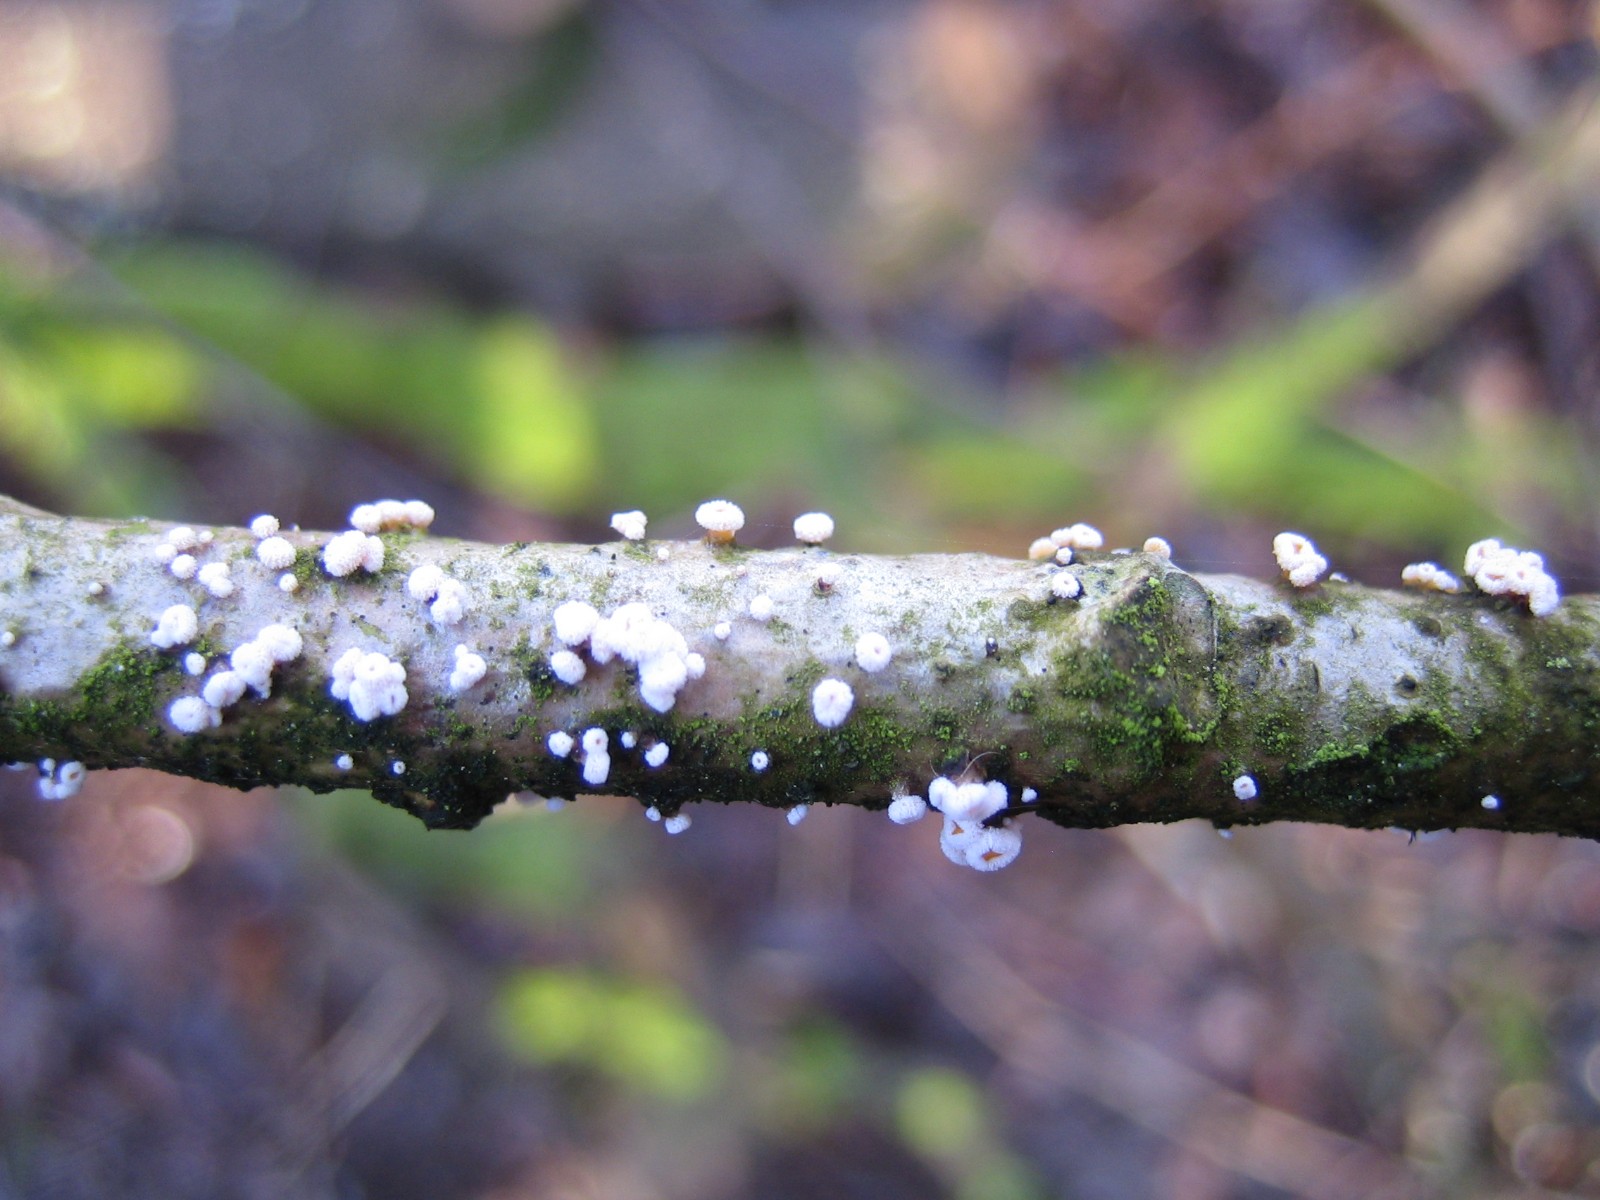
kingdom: Fungi
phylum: Ascomycota
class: Leotiomycetes
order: Helotiales
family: Lachnaceae
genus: Capitotricha
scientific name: Capitotricha bicolor
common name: prægtig frynseskive
